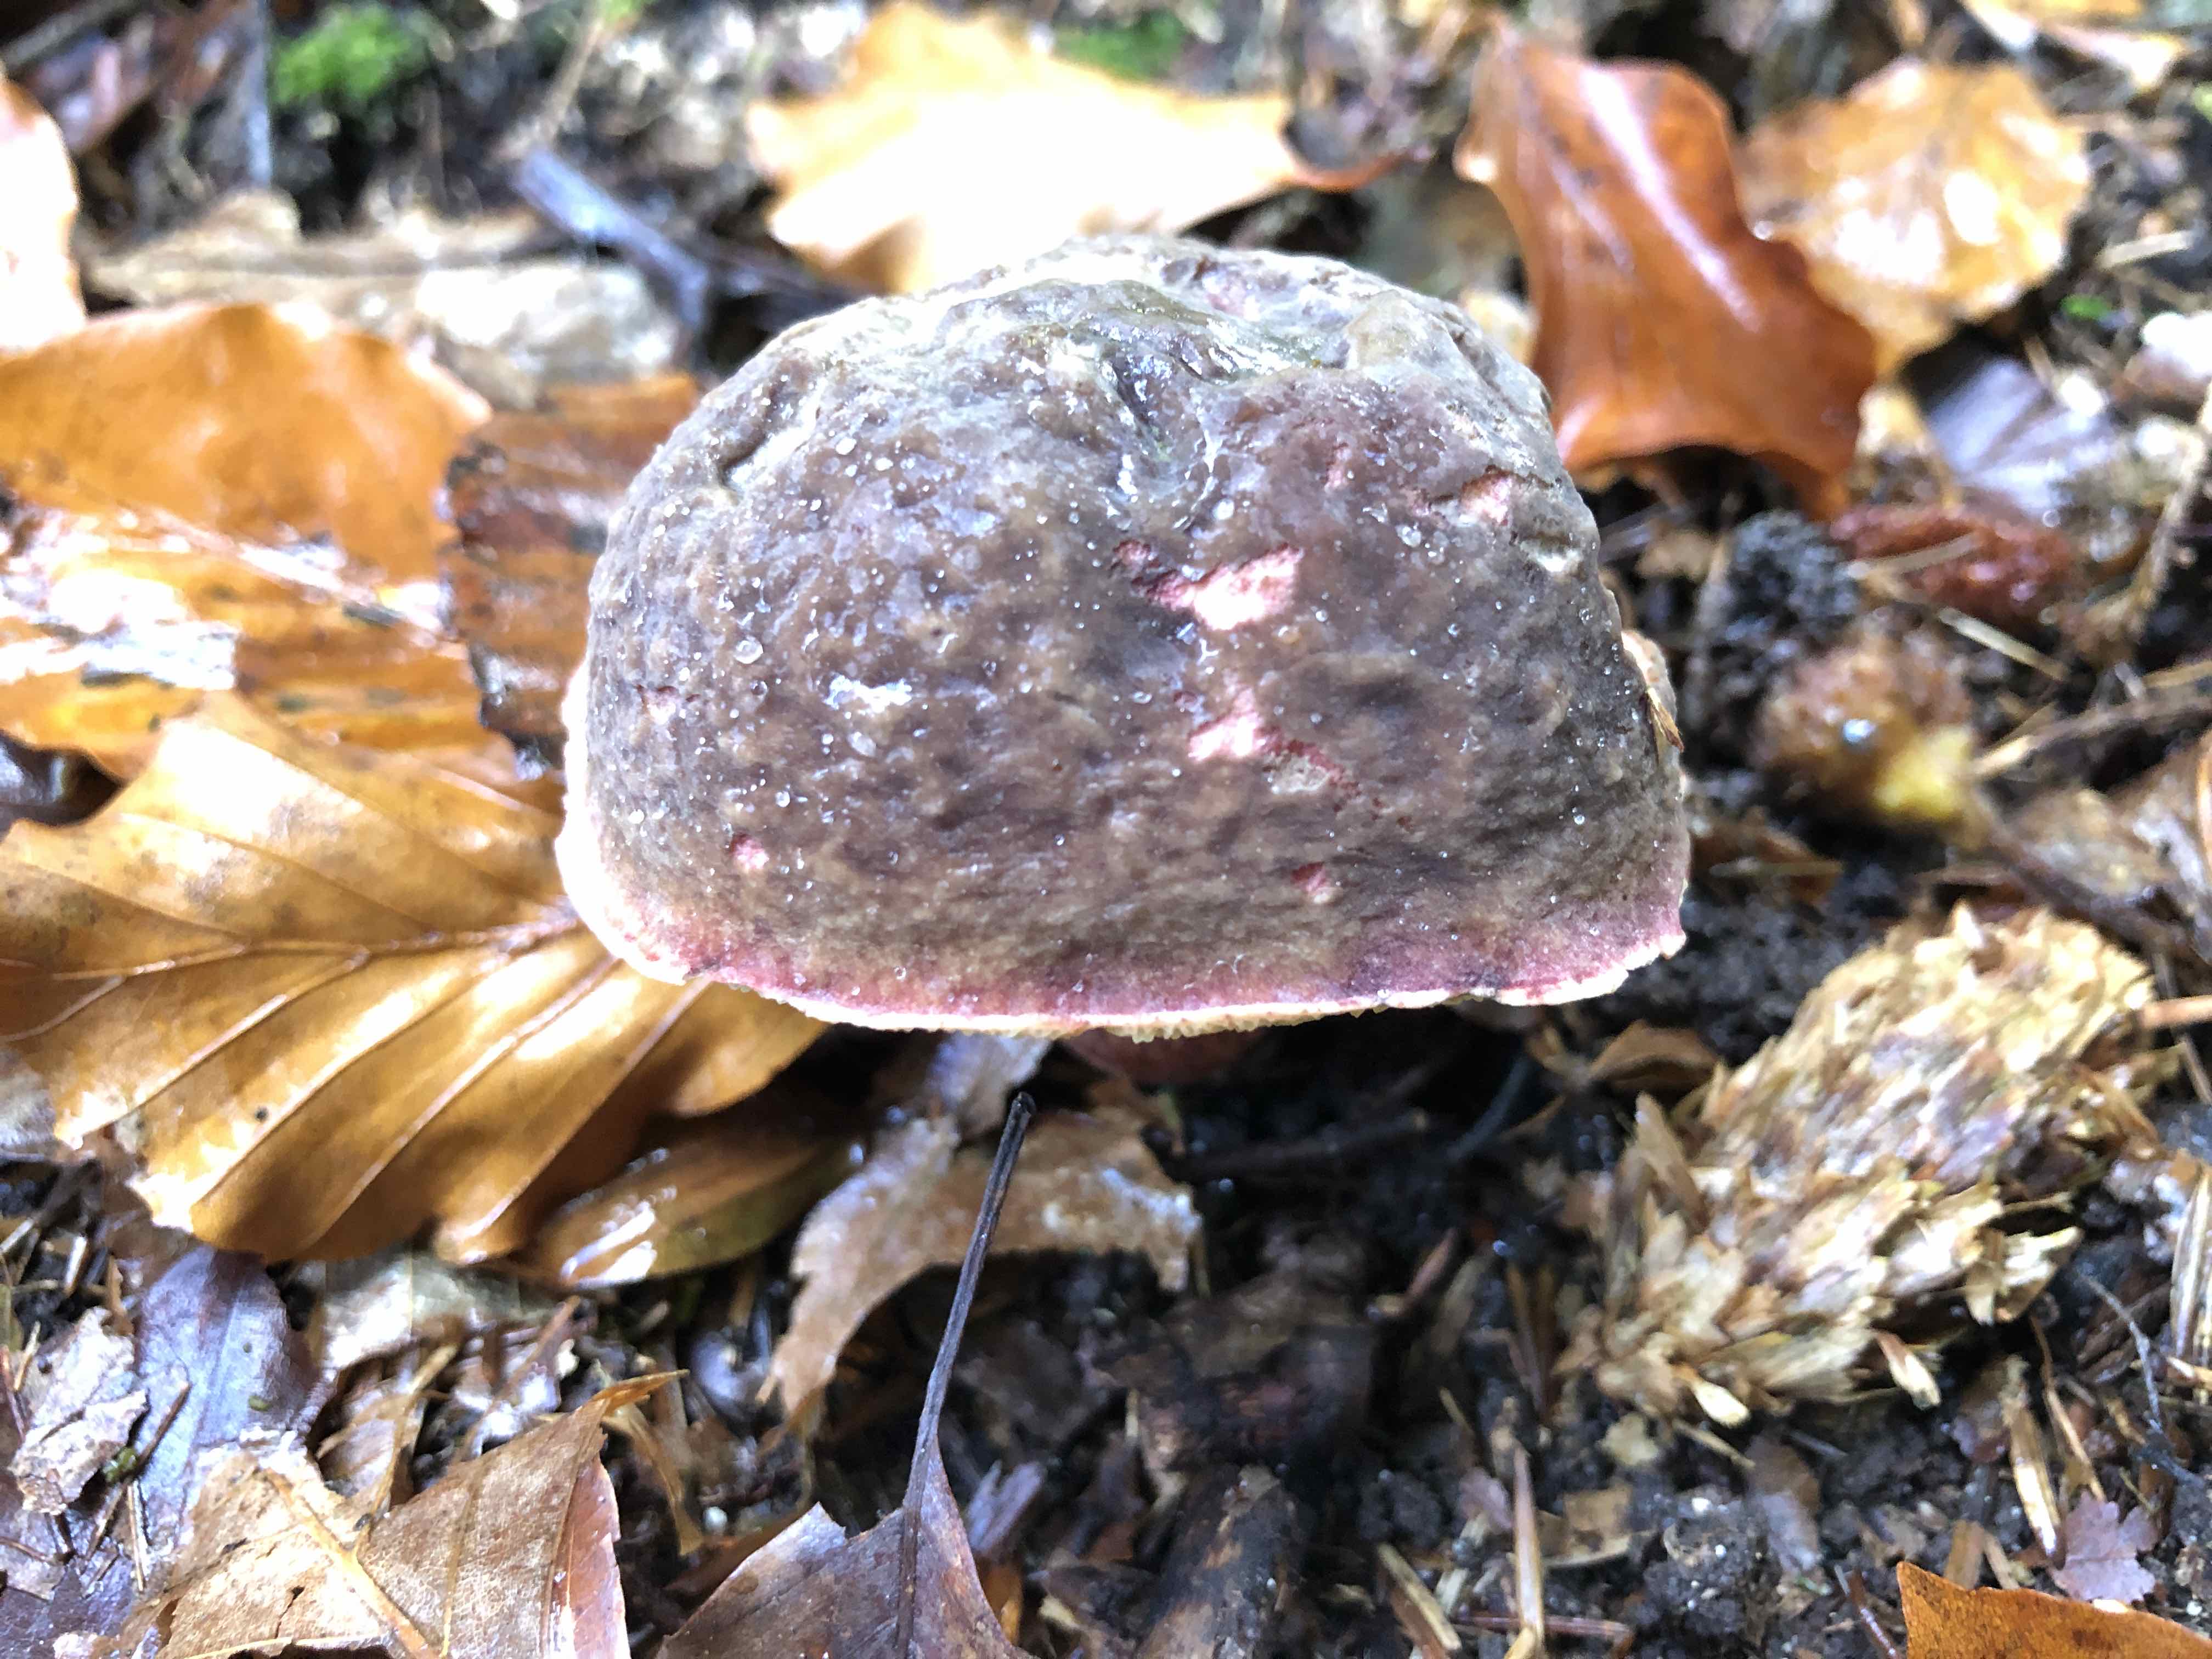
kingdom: Fungi
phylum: Basidiomycota
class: Agaricomycetes
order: Boletales
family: Boletaceae
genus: Xerocomellus
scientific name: Xerocomellus pruinatus
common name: dugget rørhat
